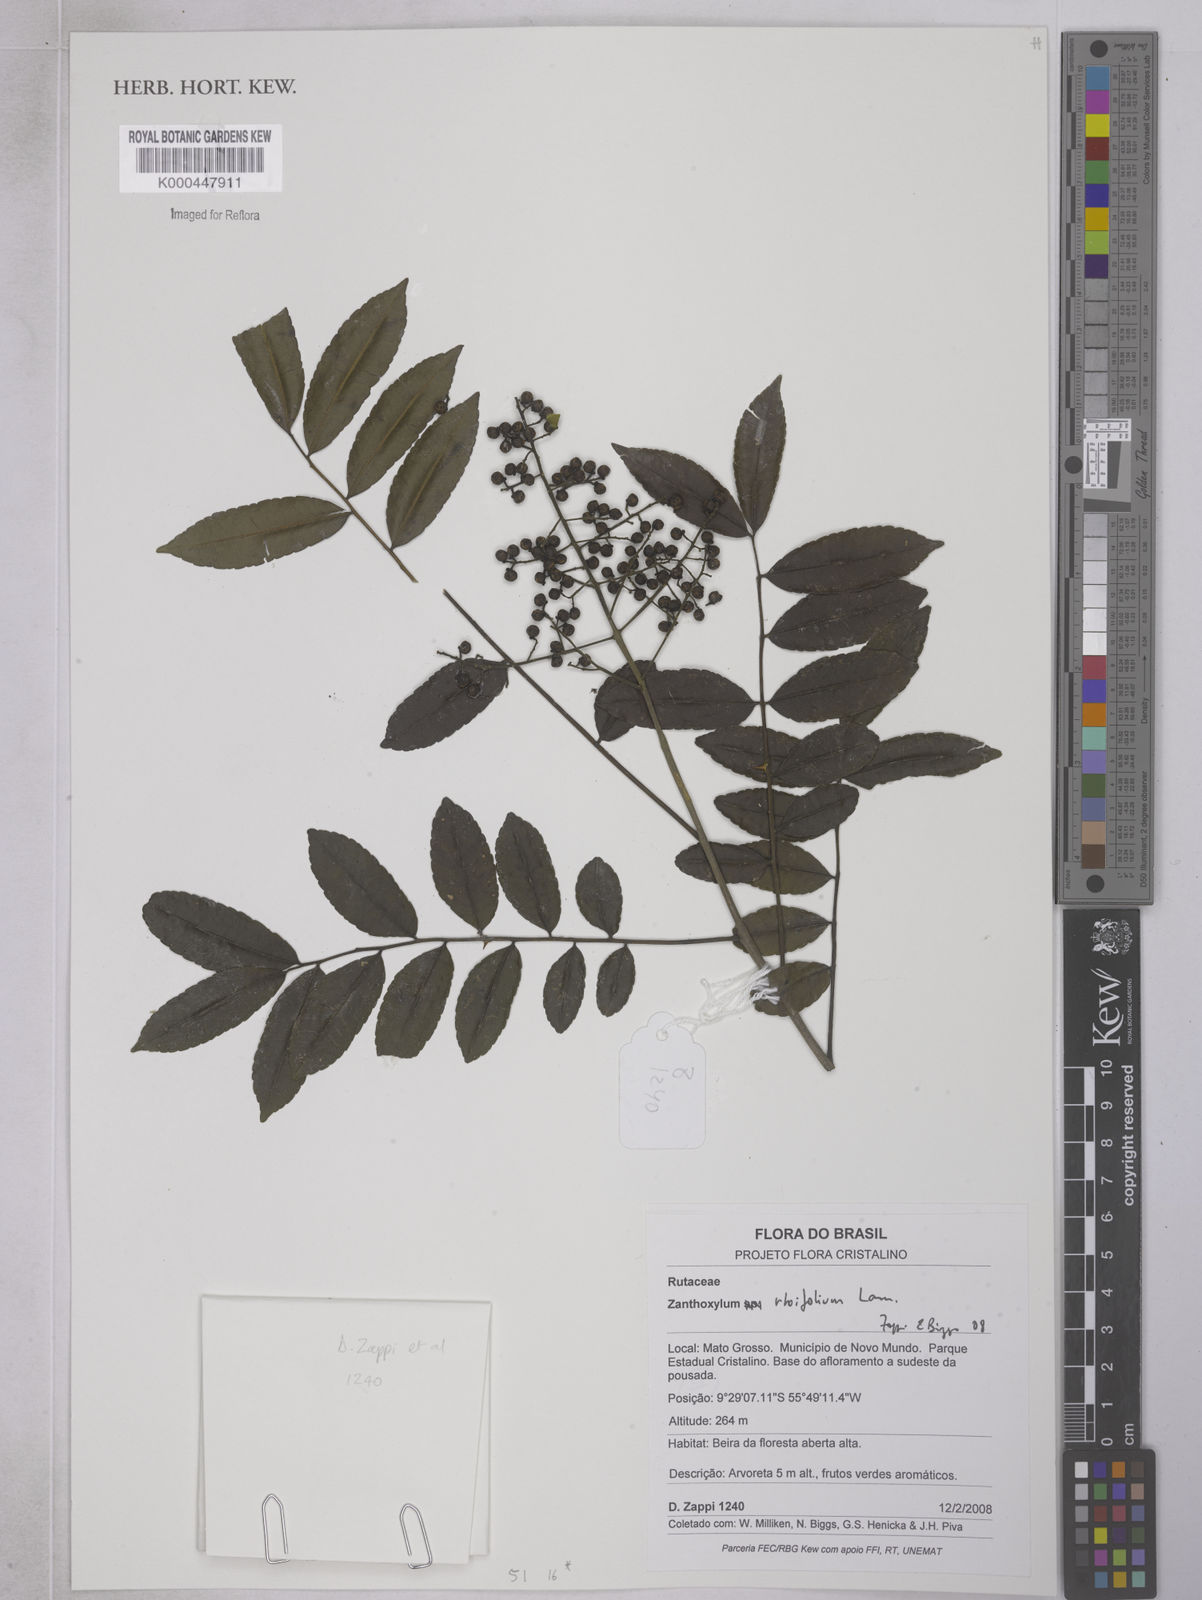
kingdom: Plantae
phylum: Tracheophyta
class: Magnoliopsida
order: Sapindales
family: Rutaceae
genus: Zanthoxylum
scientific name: Zanthoxylum rhoifolium
